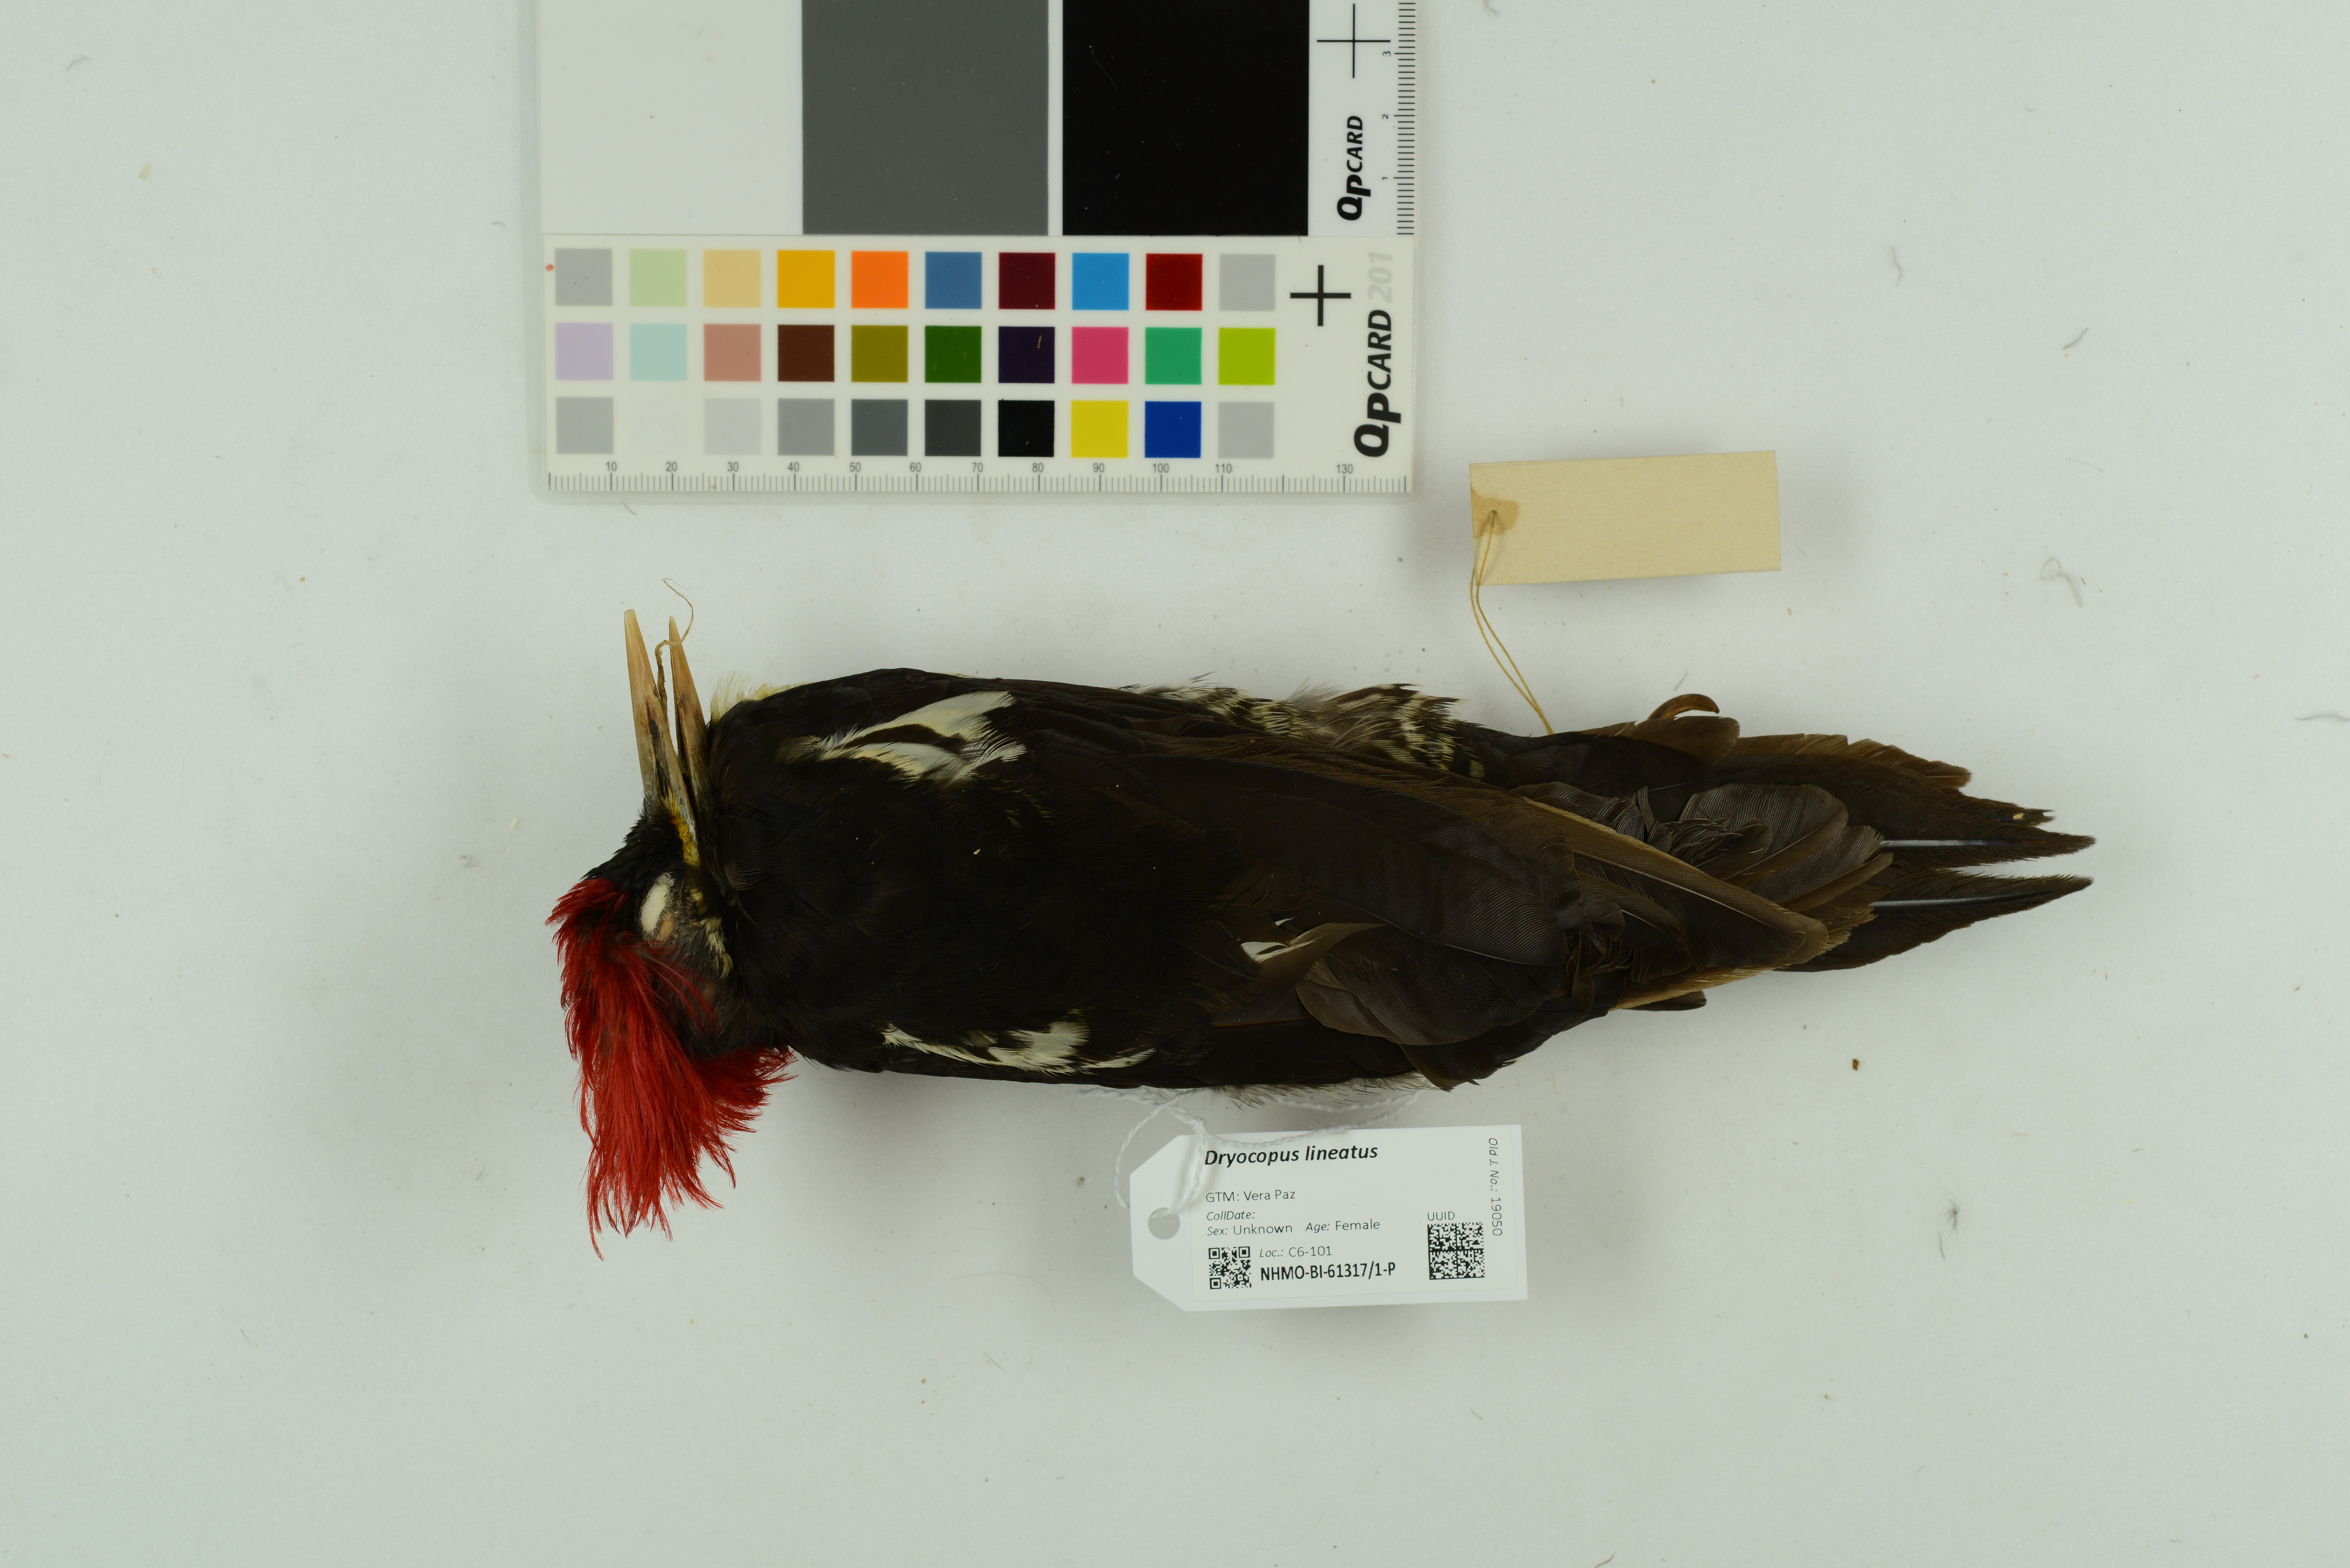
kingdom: Animalia
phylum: Chordata
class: Aves
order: Piciformes
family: Picidae
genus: Dryocopus
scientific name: Dryocopus lineatus
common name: Lineated woodpecker
